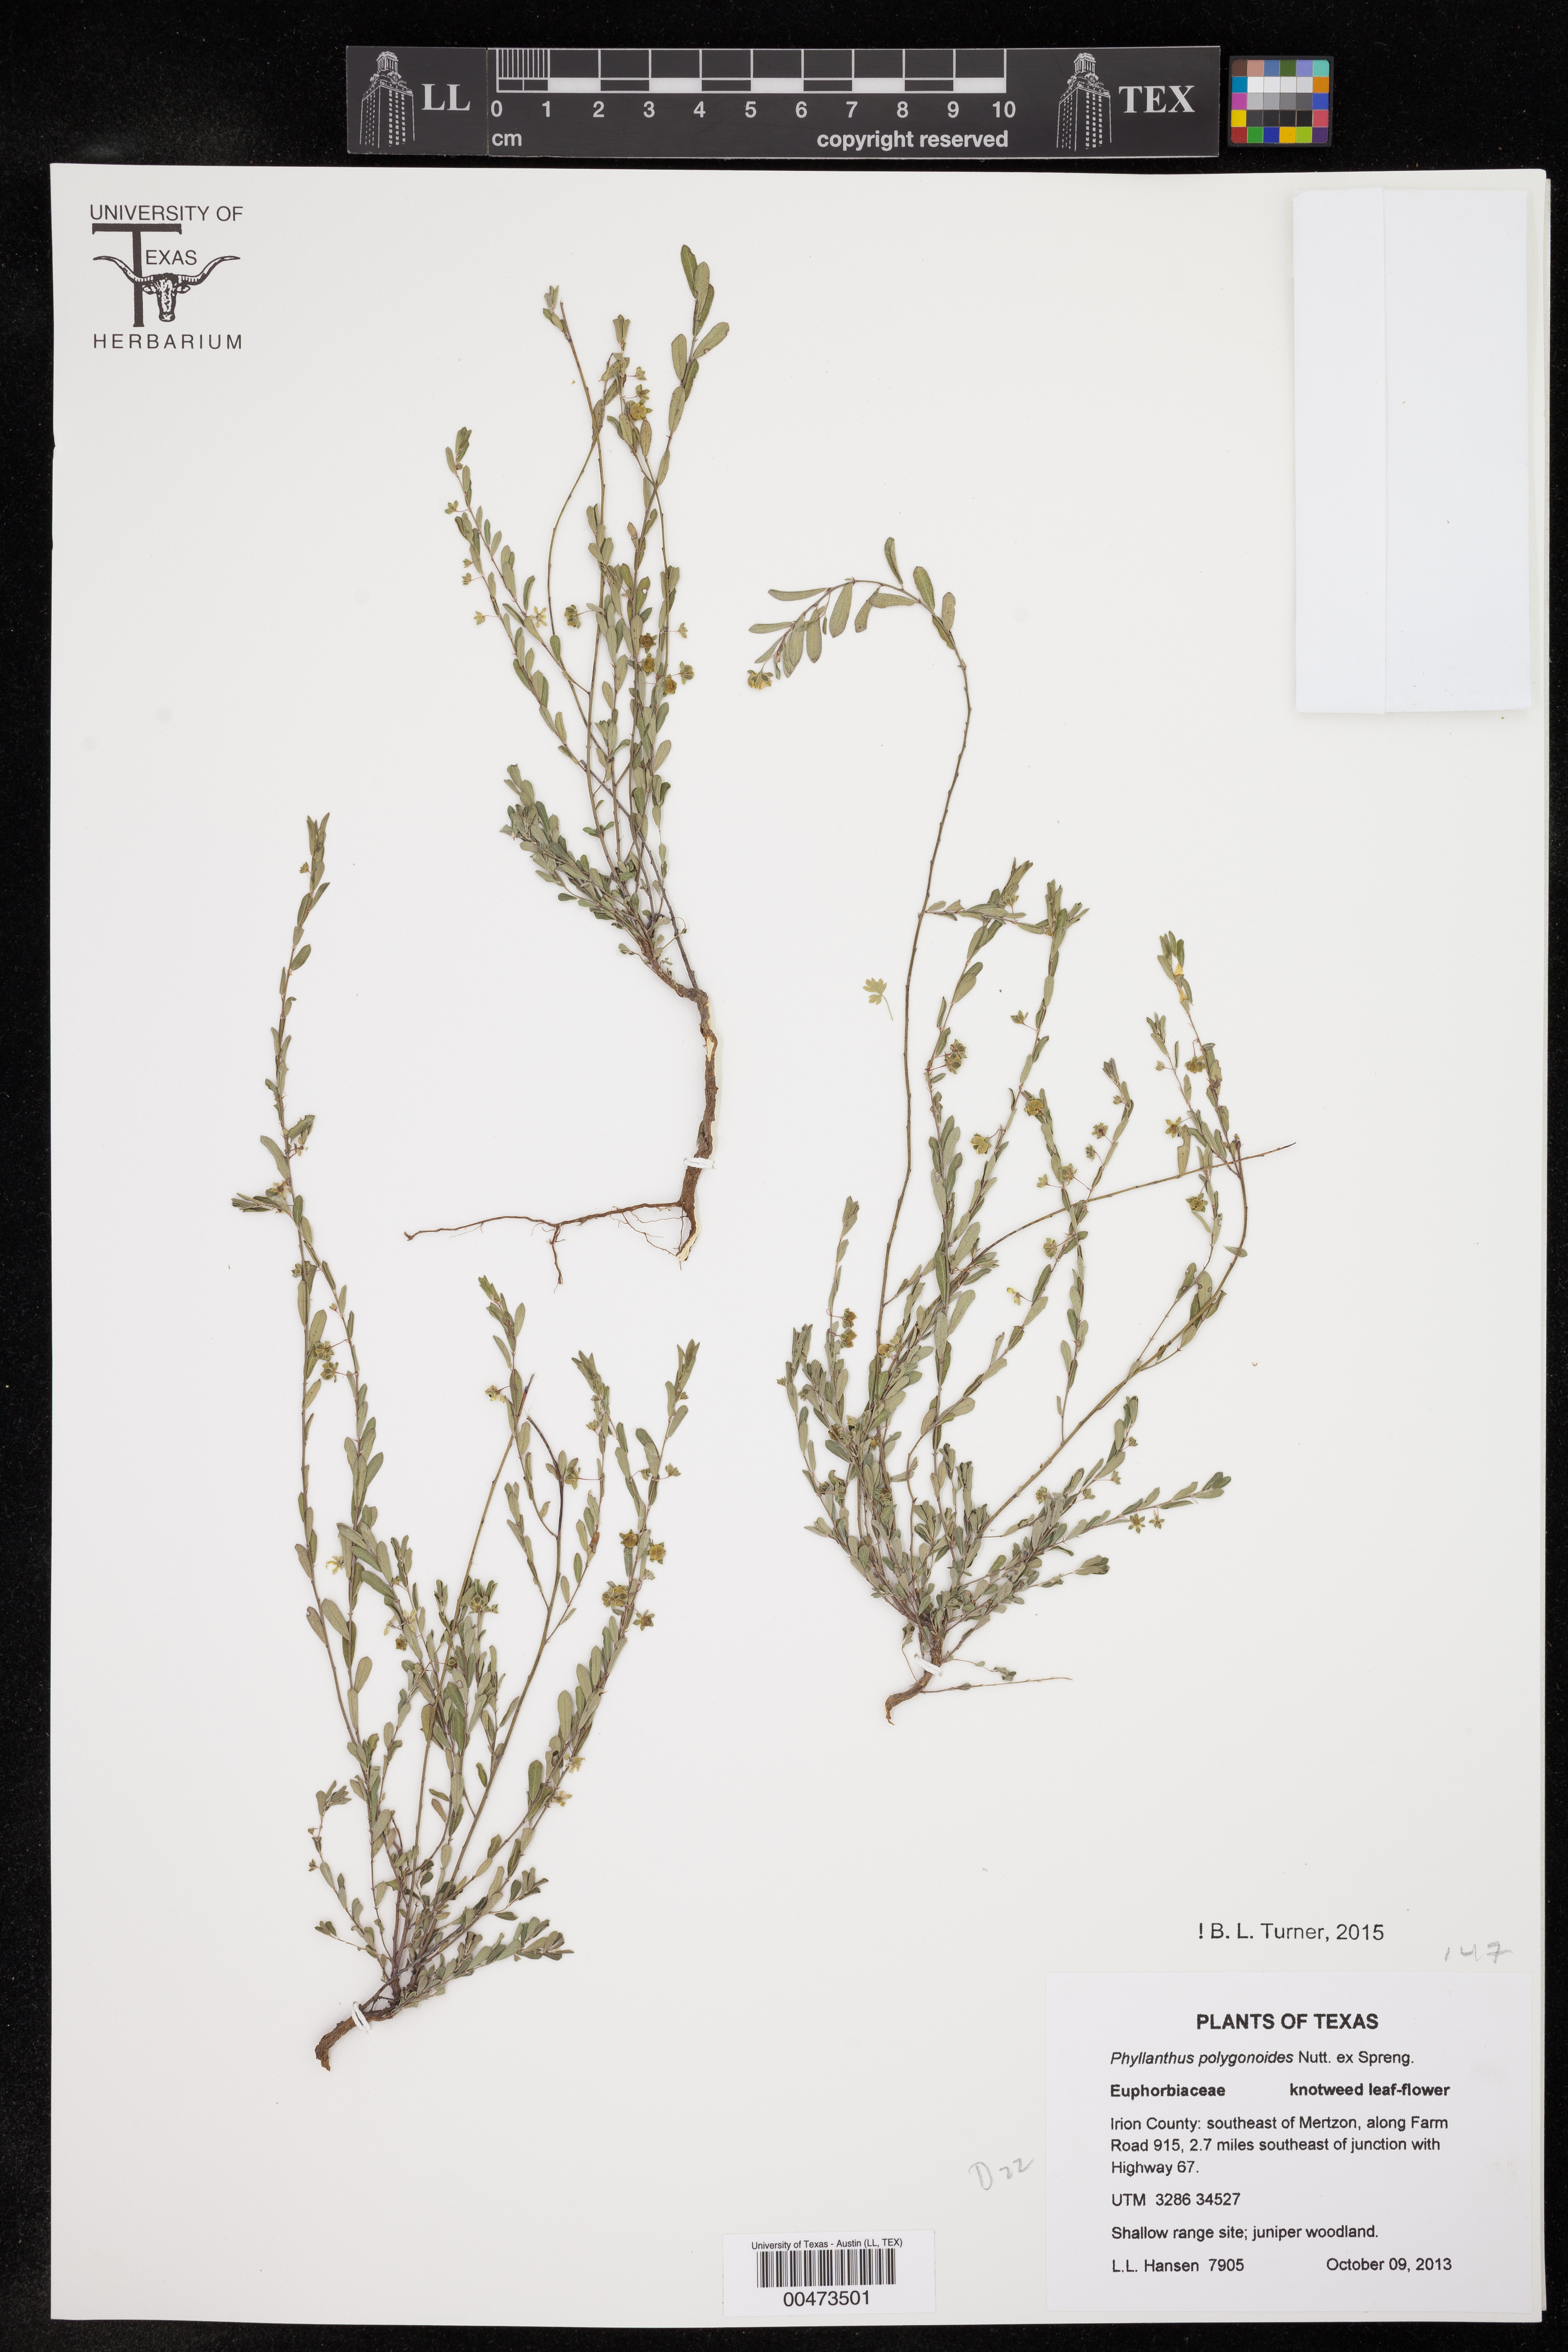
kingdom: Plantae
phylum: Tracheophyta
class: Magnoliopsida
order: Malpighiales
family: Phyllanthaceae
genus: Phyllanthus
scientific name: Phyllanthus polygonoides
